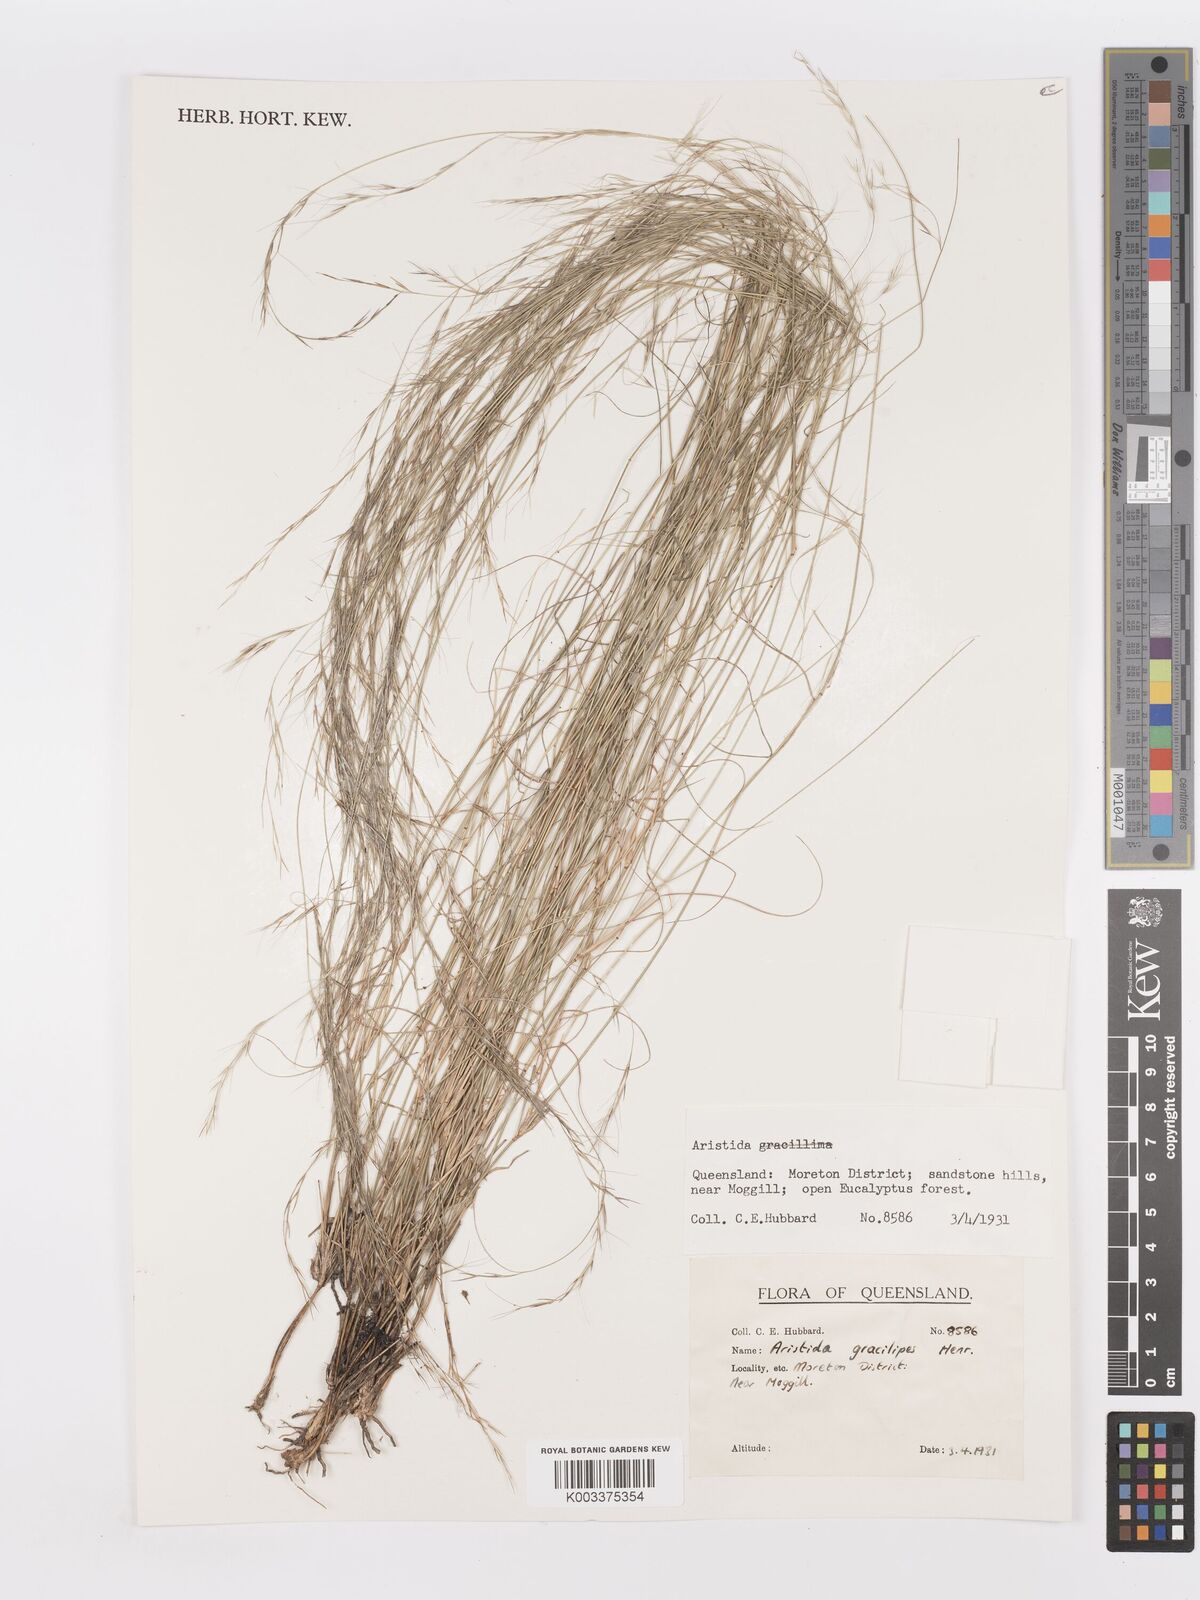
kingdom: Plantae
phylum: Tracheophyta
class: Liliopsida
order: Poales
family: Poaceae
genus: Aristida
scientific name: Aristida gracilipes
